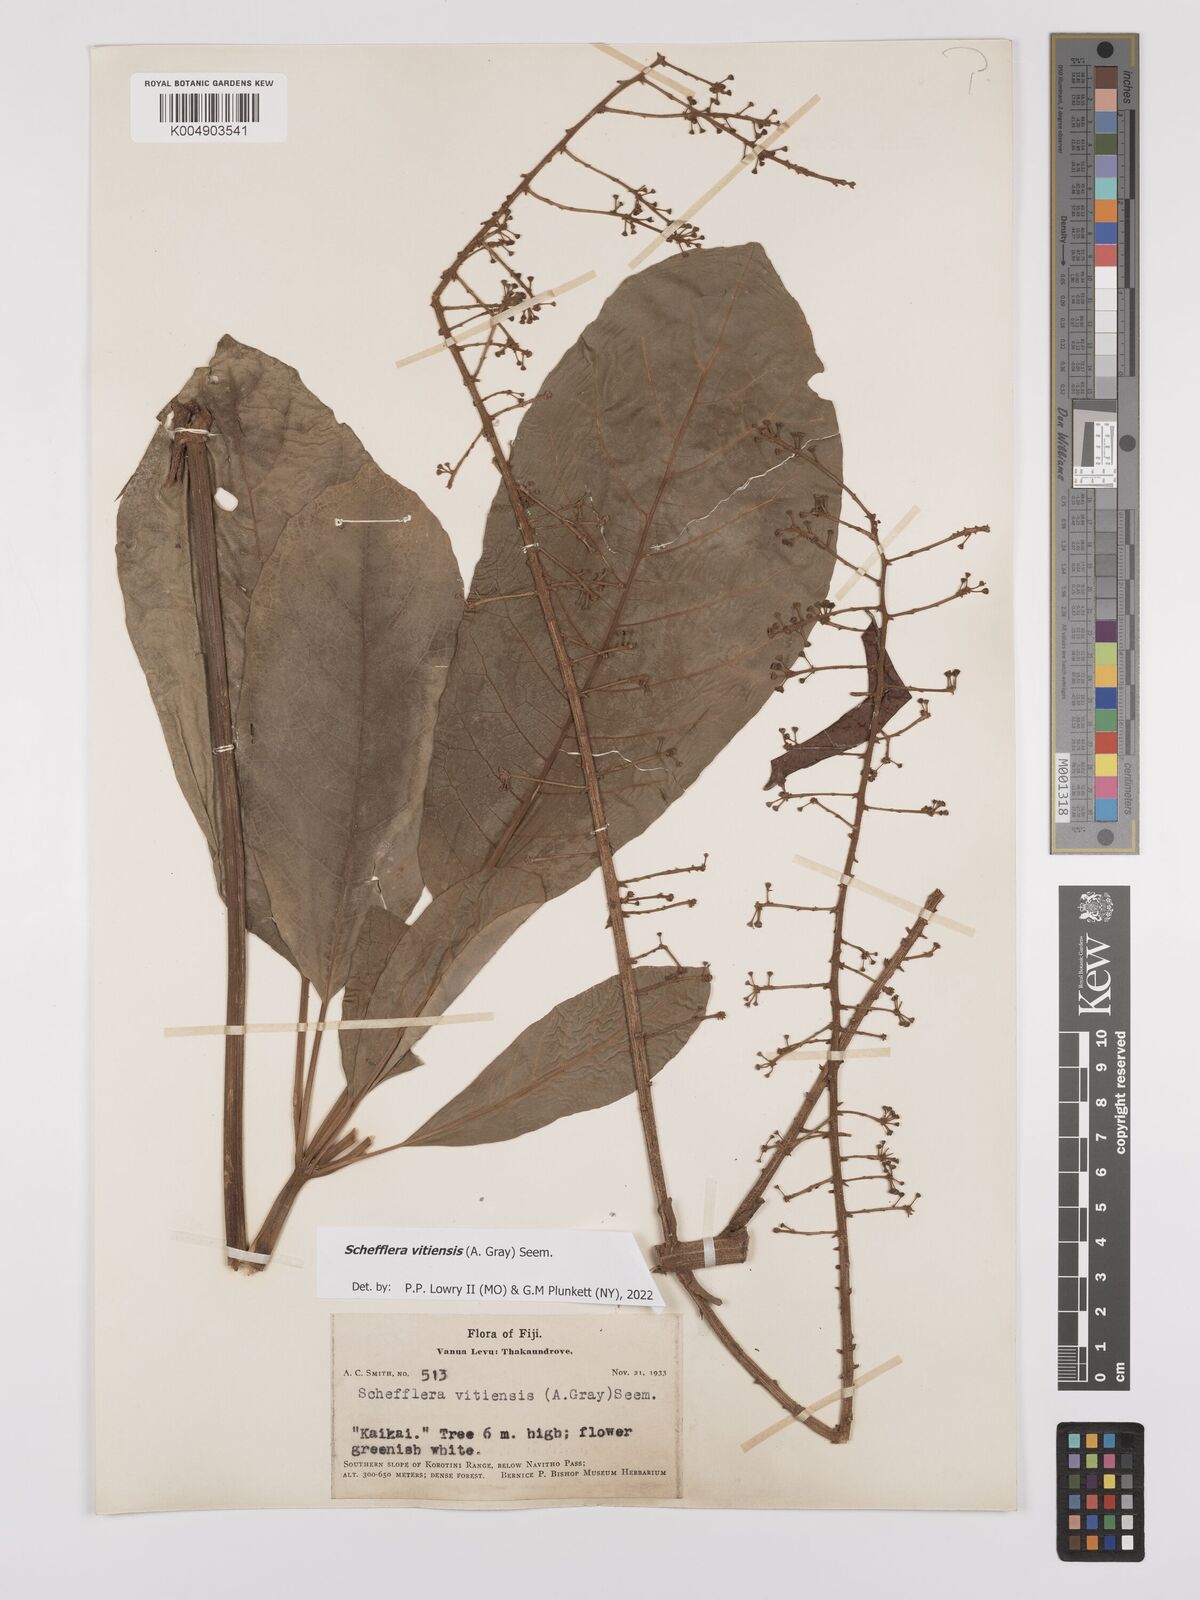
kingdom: Plantae
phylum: Tracheophyta
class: Magnoliopsida
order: Apiales
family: Araliaceae
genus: Schefflera
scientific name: Schefflera vitiensis
